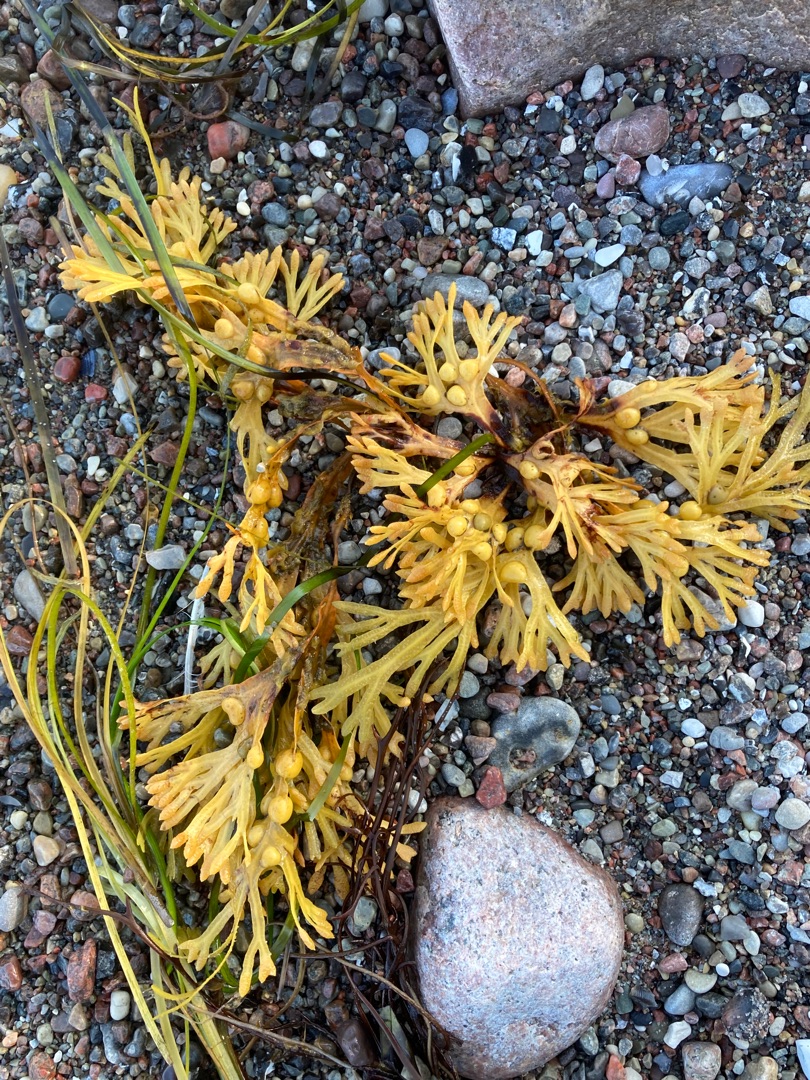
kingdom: Chromista
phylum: Ochrophyta
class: Phaeophyceae
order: Fucales
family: Fucaceae
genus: Fucus
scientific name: Fucus vesiculosus
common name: Blæretang
